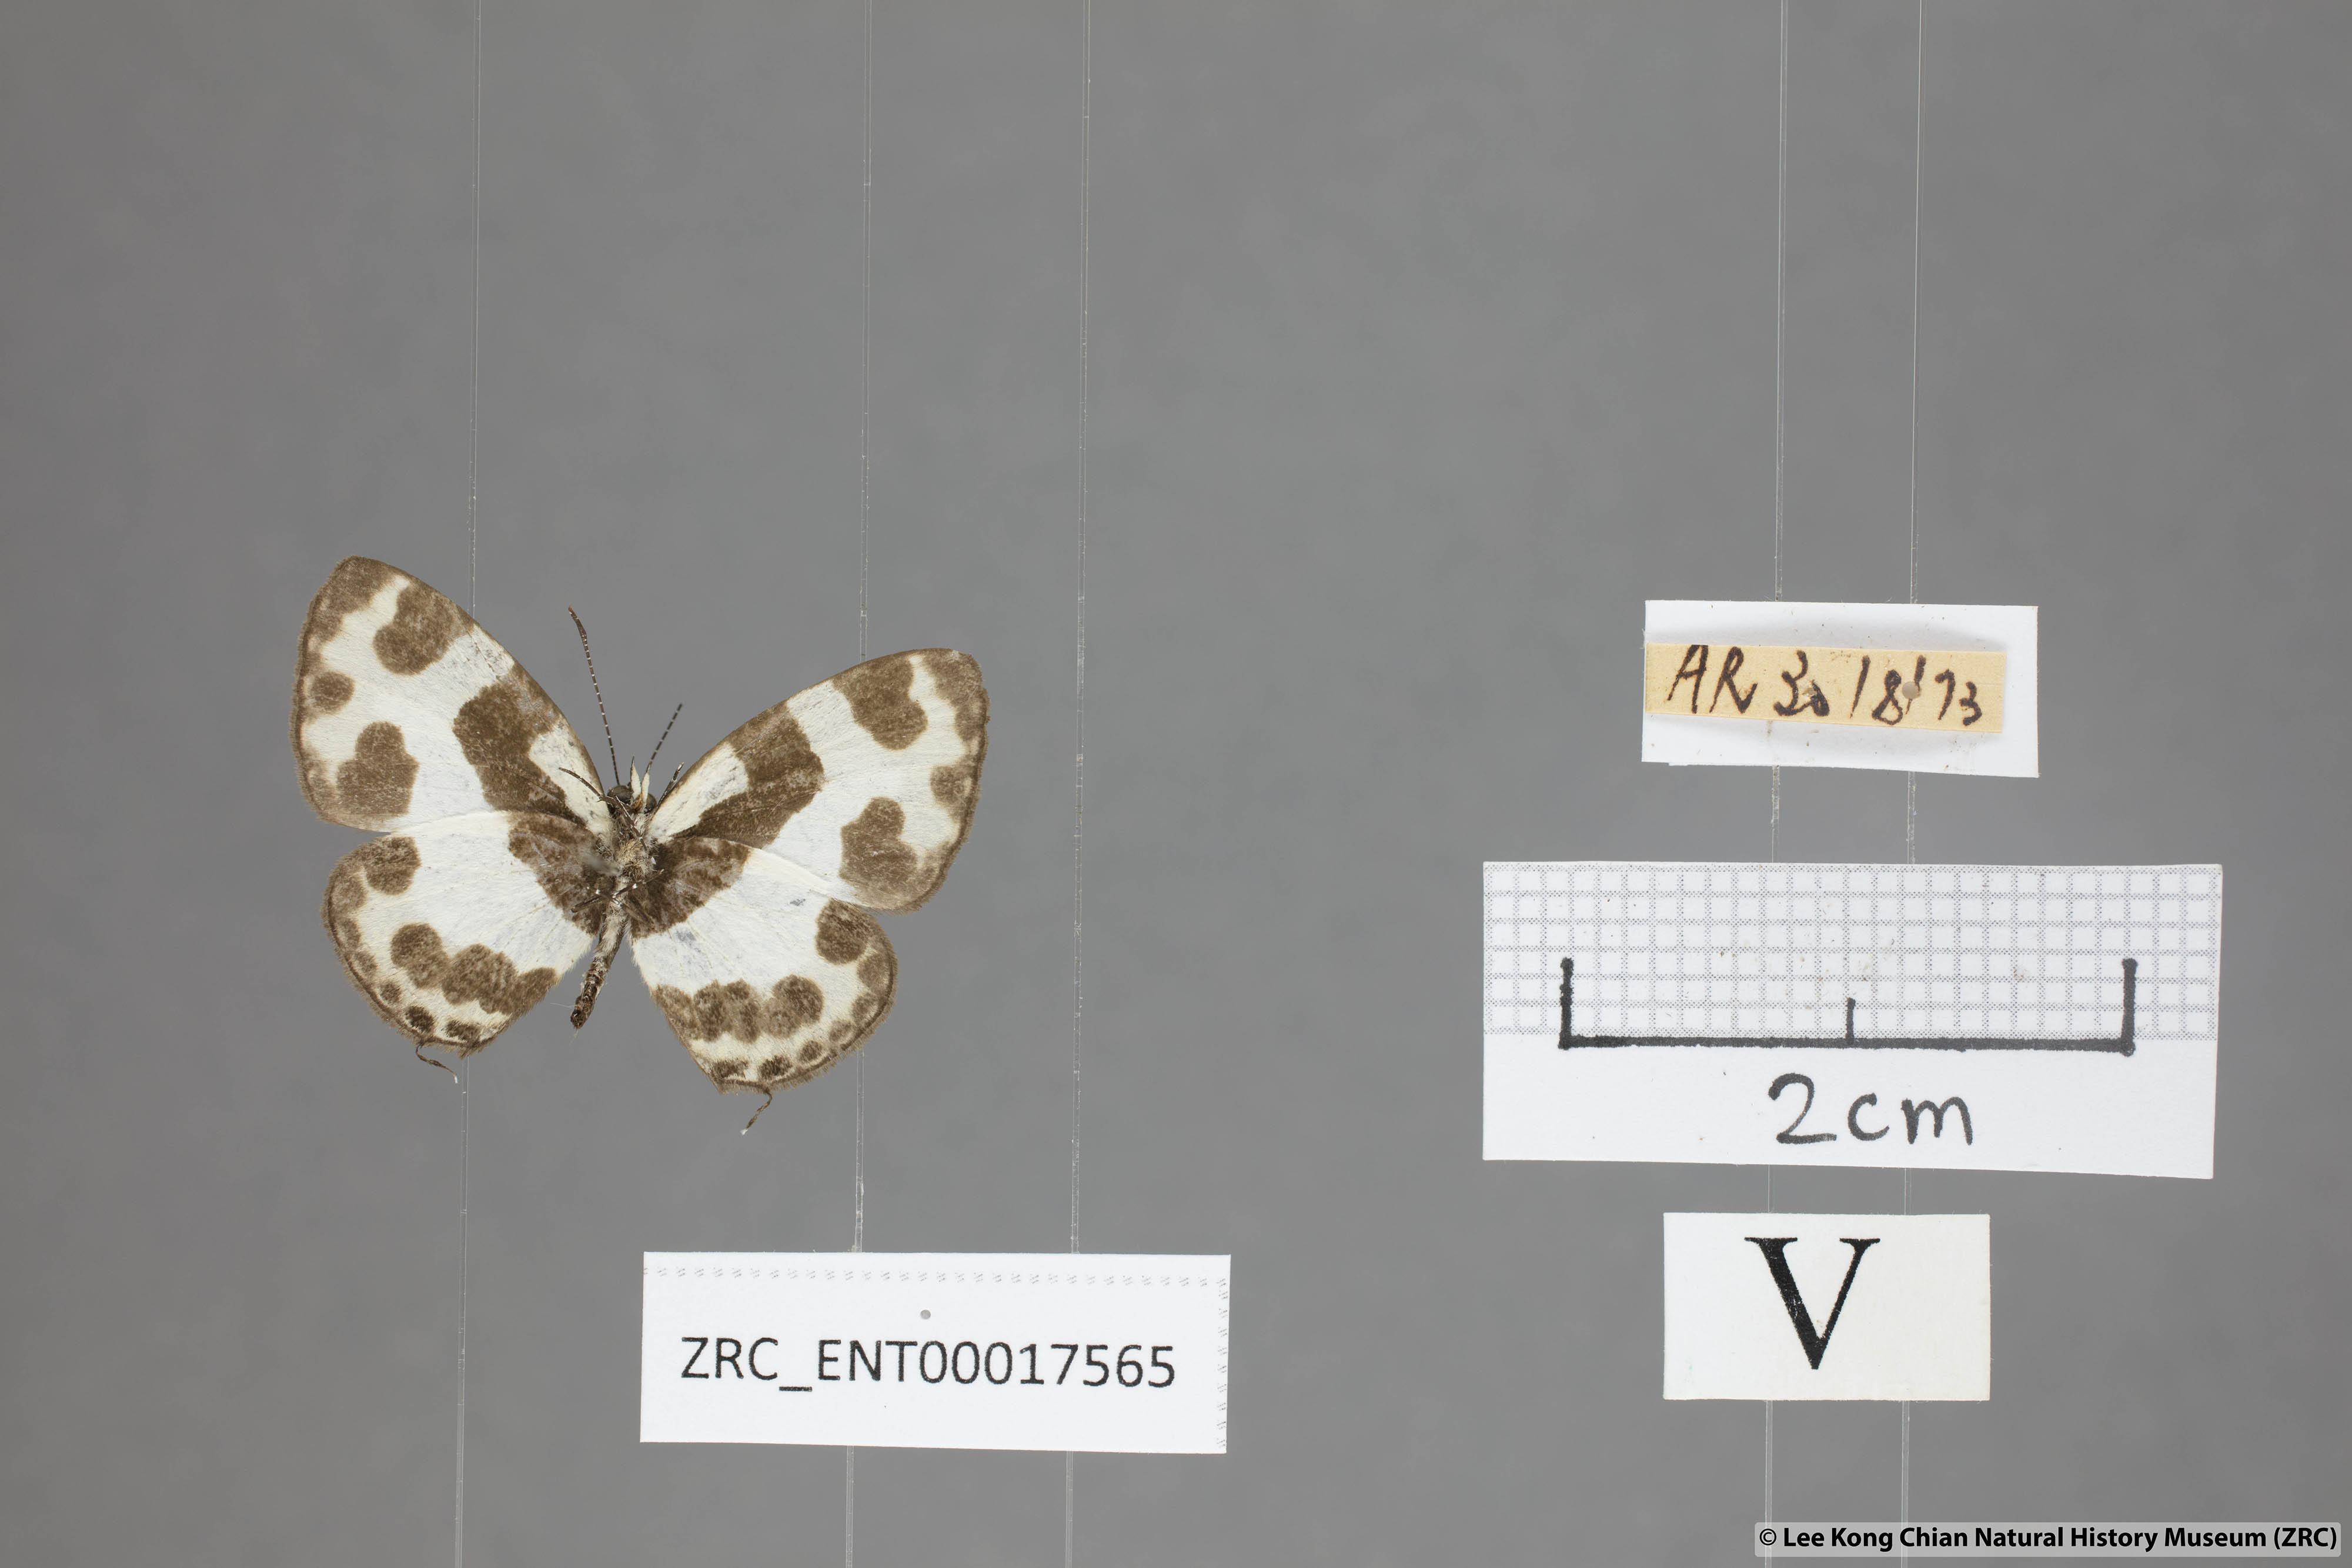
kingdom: Animalia
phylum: Arthropoda
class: Insecta
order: Lepidoptera
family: Lycaenidae
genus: Caleta
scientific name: Caleta elna
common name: Elbowed pierrot
